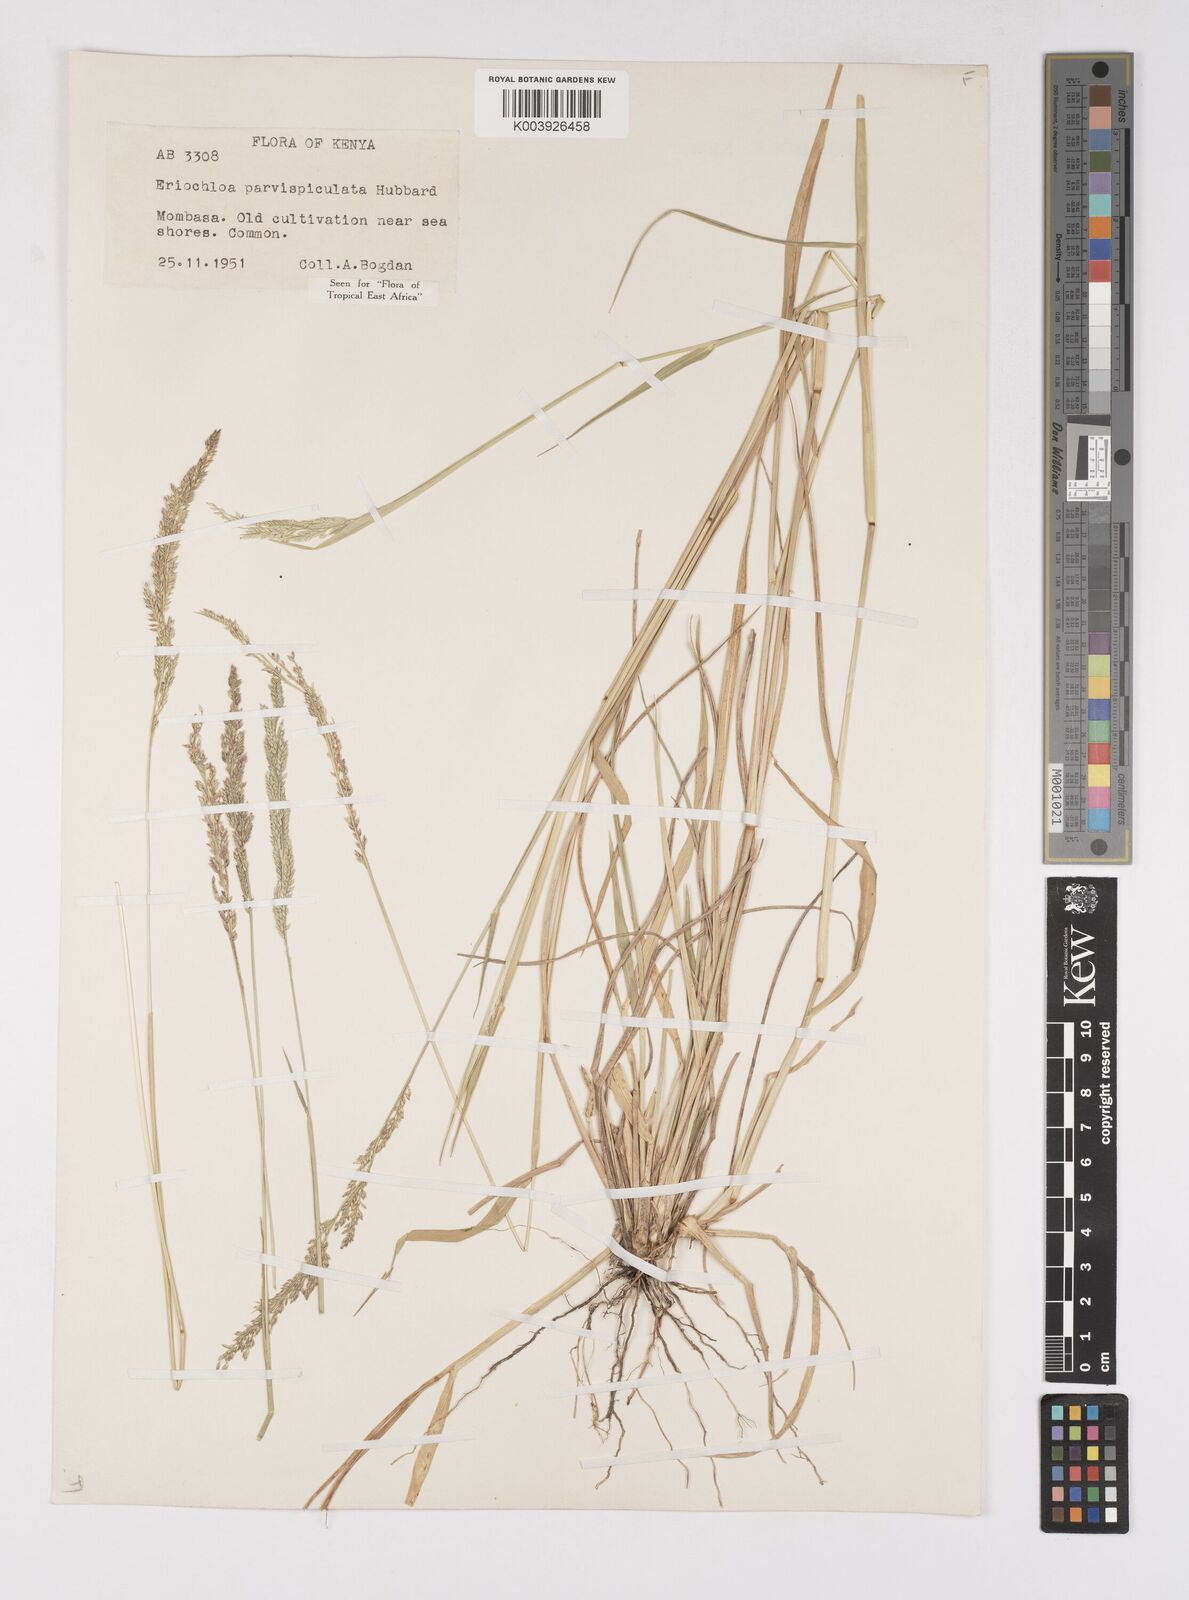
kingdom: Plantae
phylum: Tracheophyta
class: Liliopsida
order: Poales
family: Poaceae
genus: Eriochloa
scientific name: Eriochloa parvispiculata
